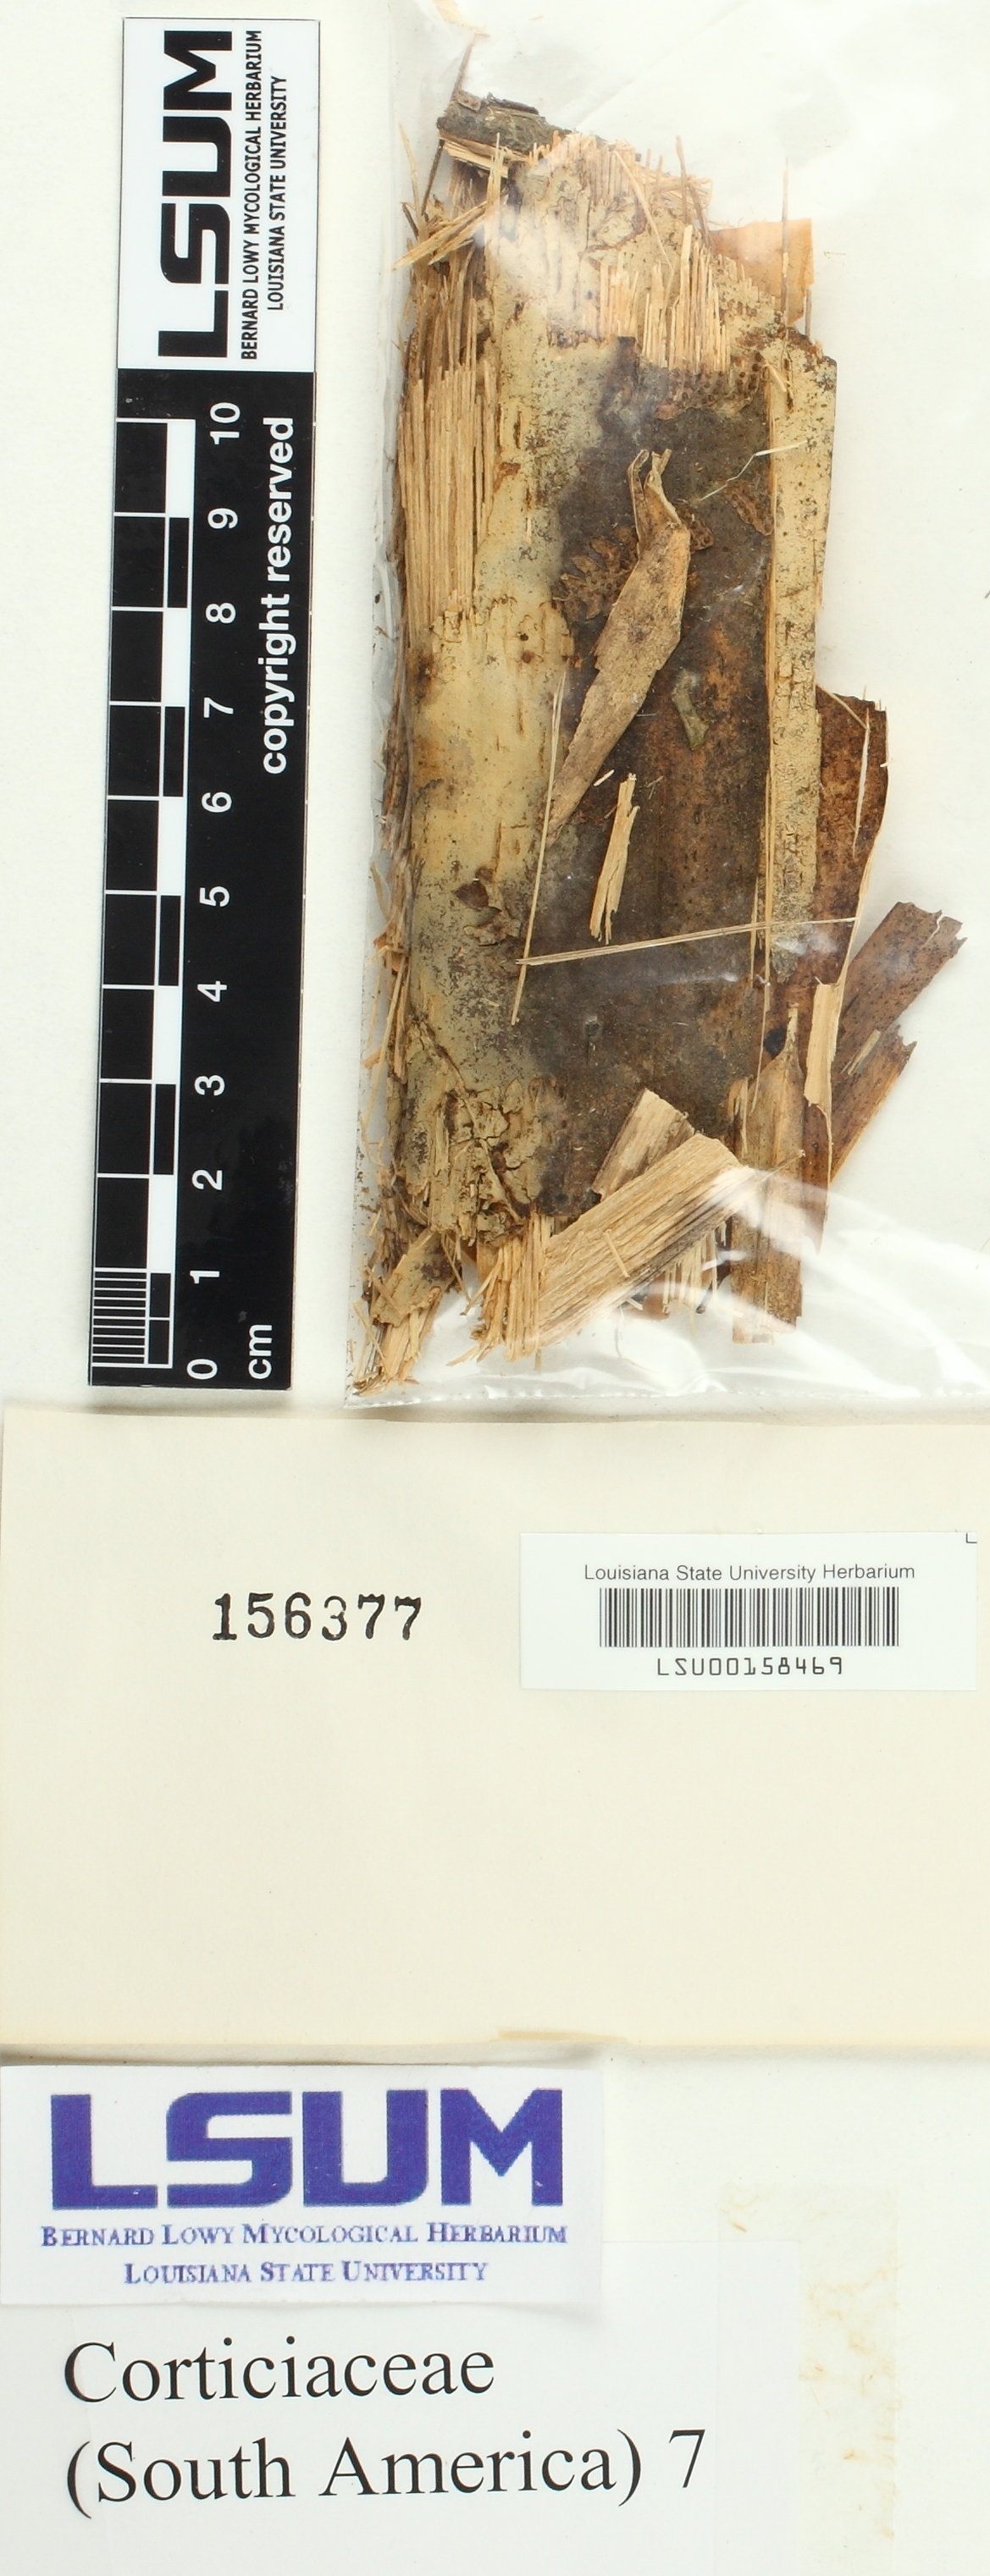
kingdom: Fungi
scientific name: Fungi
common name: Fungi
